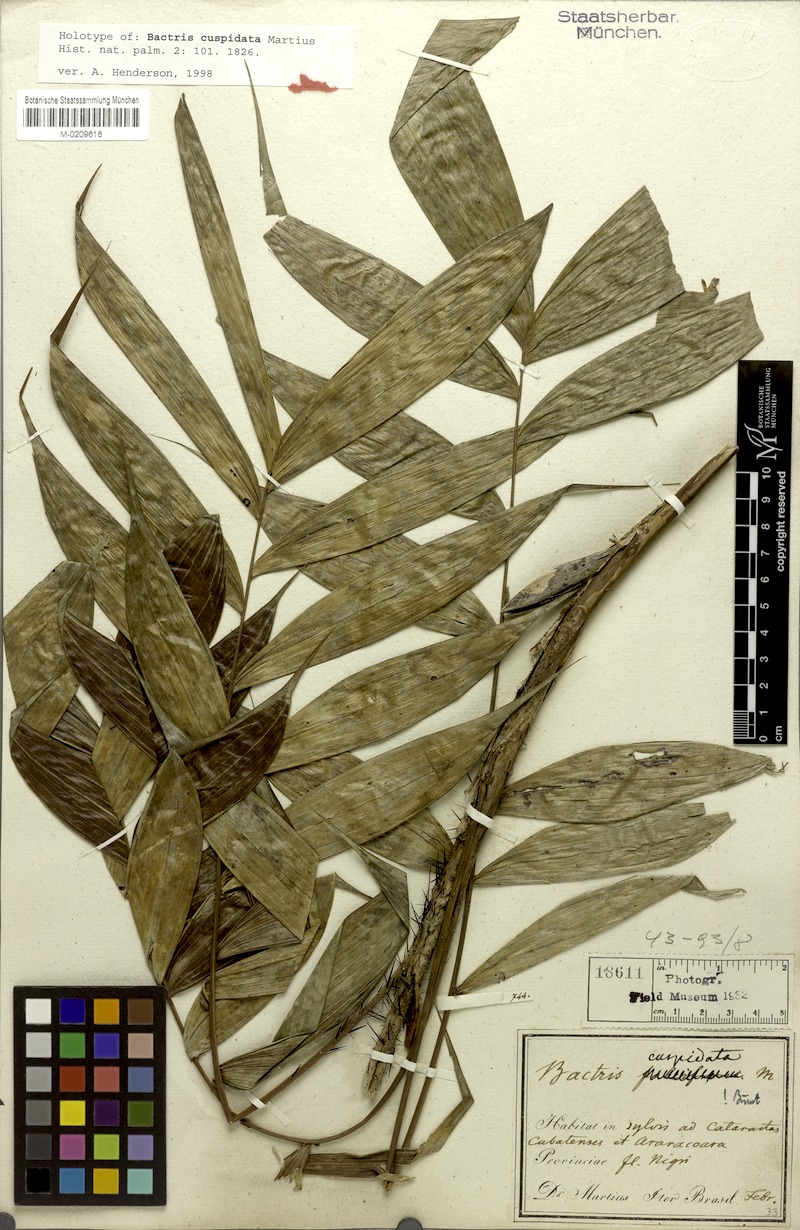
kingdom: Plantae
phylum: Tracheophyta
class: Liliopsida
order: Arecales
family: Arecaceae
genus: Bactris
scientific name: Bactris cuspidata
